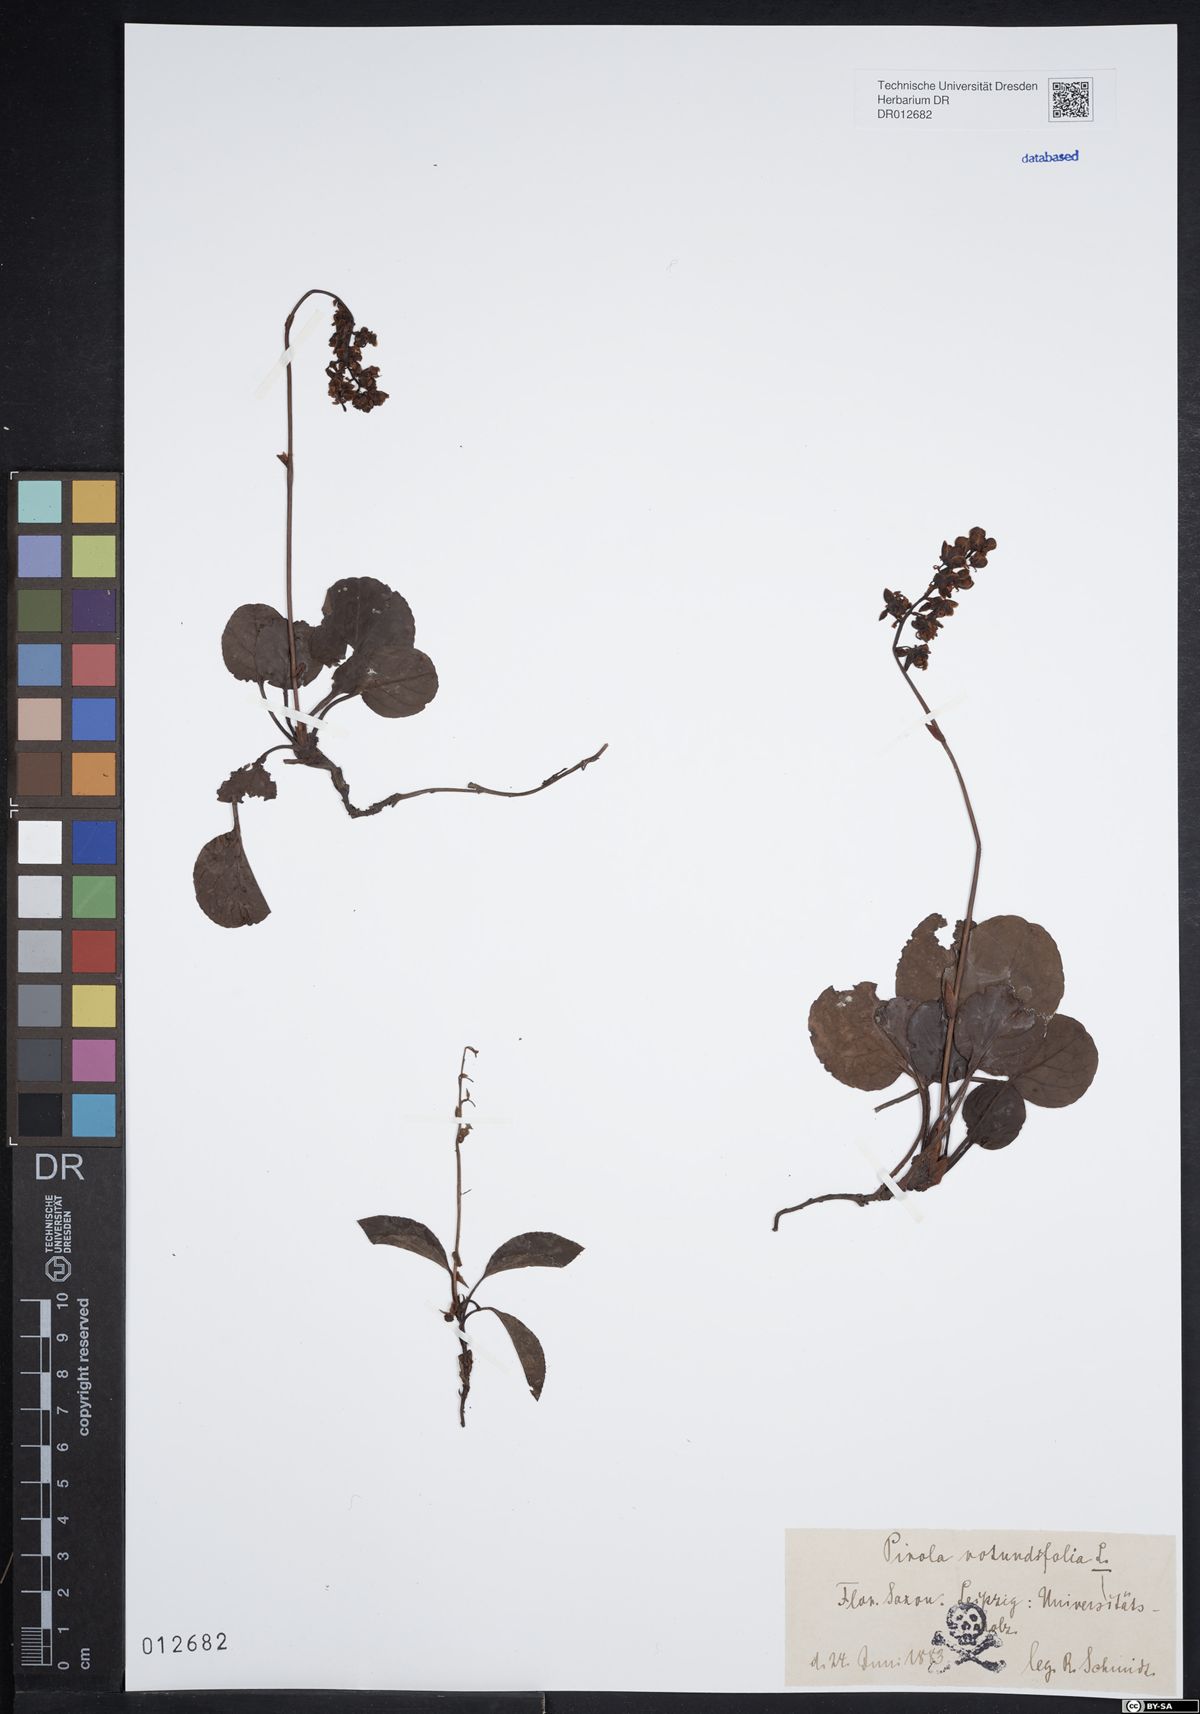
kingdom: Plantae
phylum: Tracheophyta
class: Magnoliopsida
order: Ericales
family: Ericaceae
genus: Pyrola
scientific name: Pyrola rotundifolia
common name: Round-leaved wintergreen
